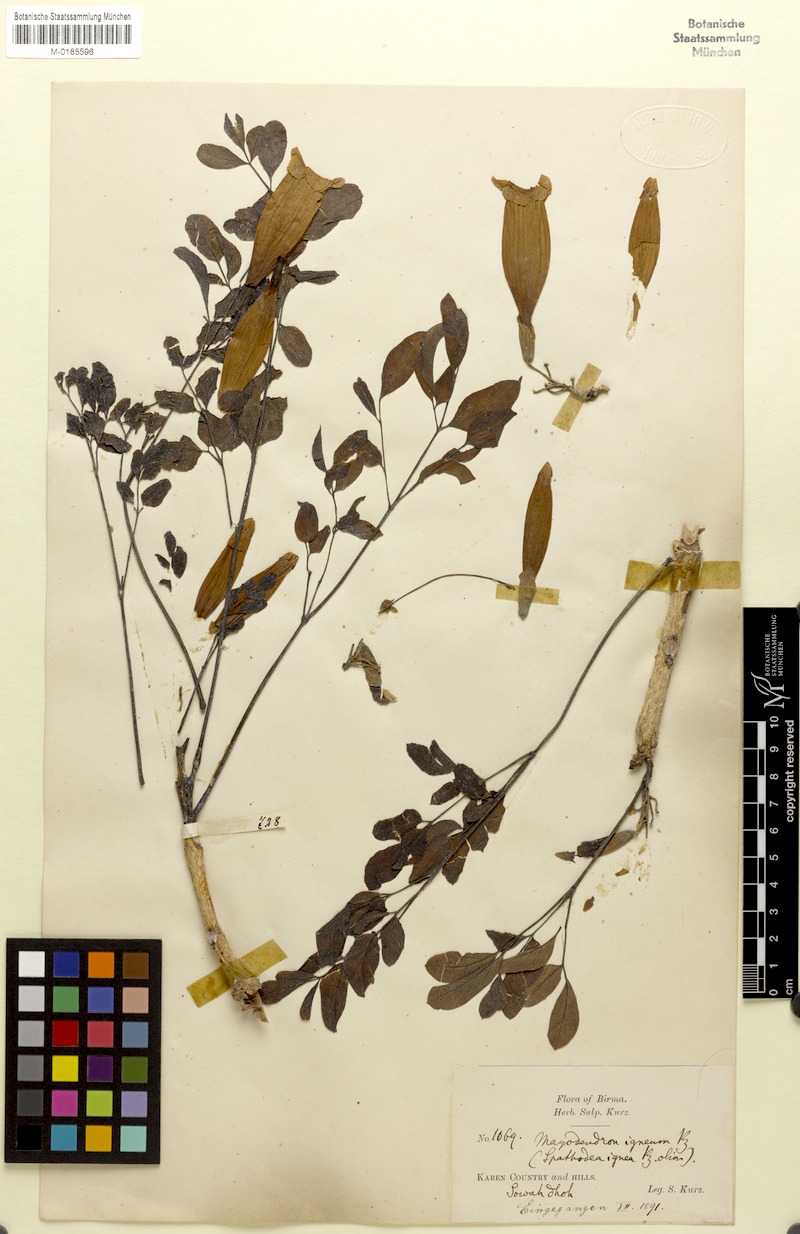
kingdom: Plantae
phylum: Tracheophyta
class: Magnoliopsida
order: Lamiales
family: Bignoniaceae
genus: Radermachera
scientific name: Radermachera ignea
